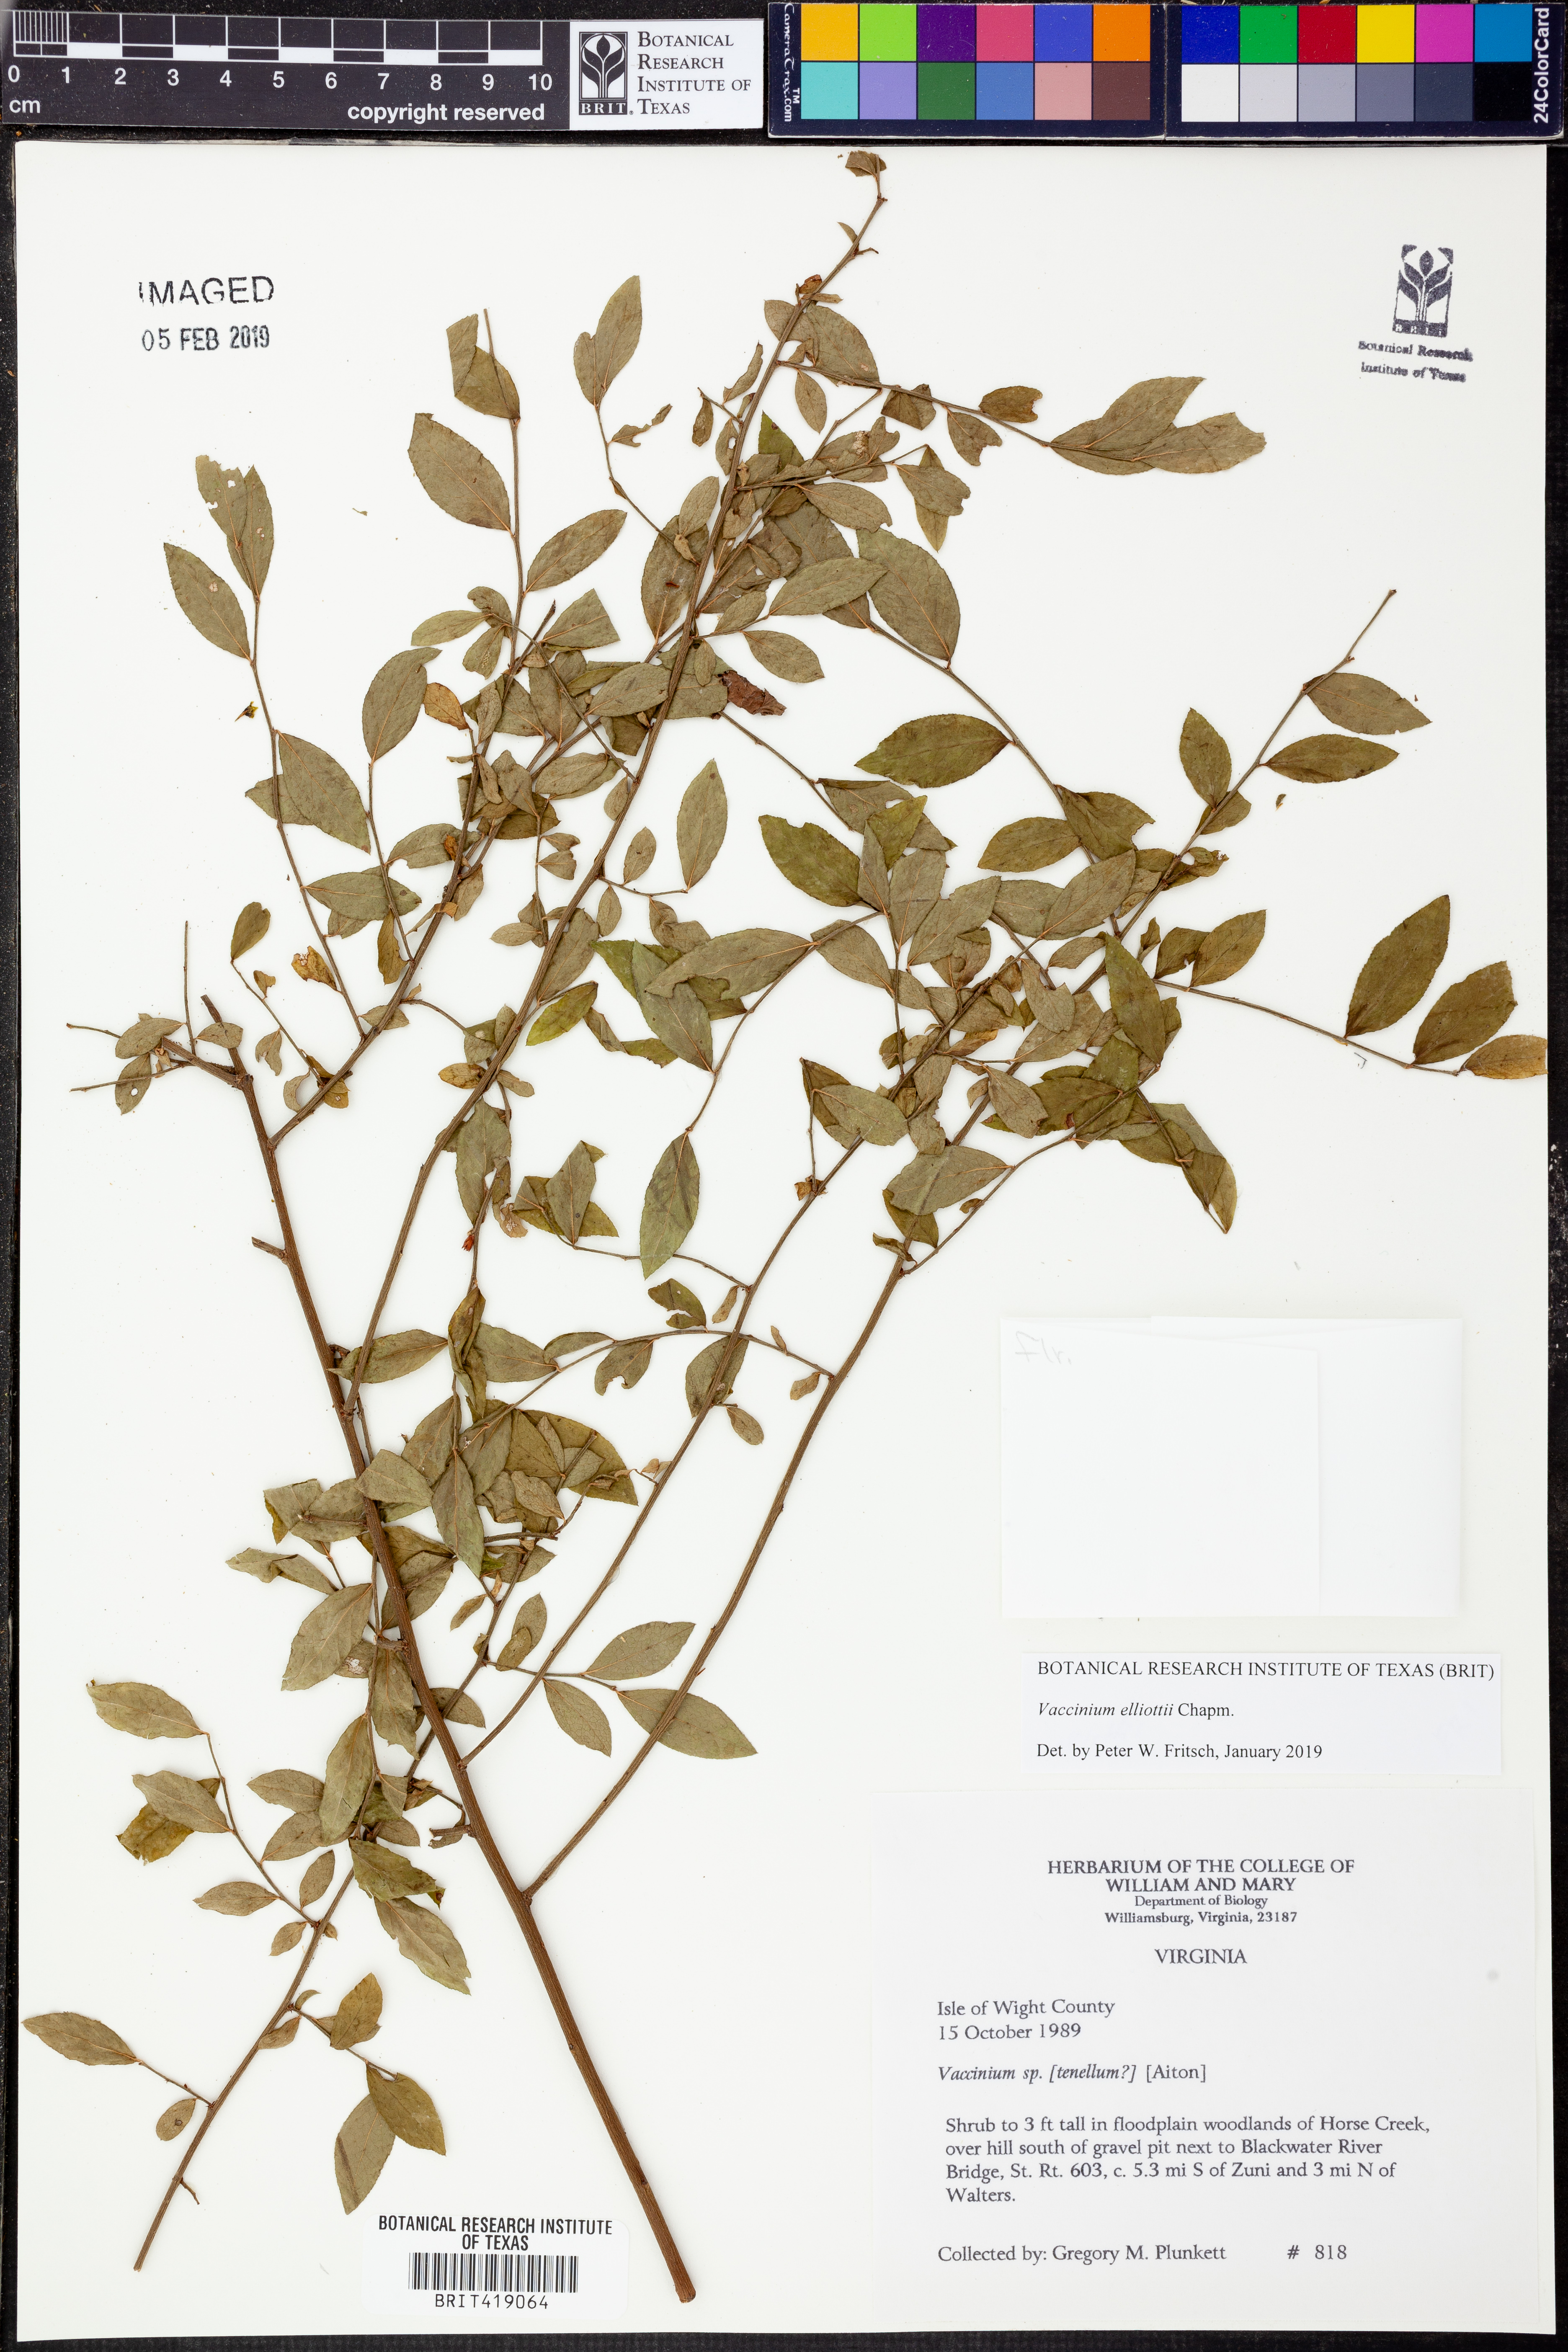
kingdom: Plantae
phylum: Tracheophyta
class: Magnoliopsida
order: Ericales
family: Ericaceae
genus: Vaccinium
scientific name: Vaccinium corymbosum
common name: Blueberry
